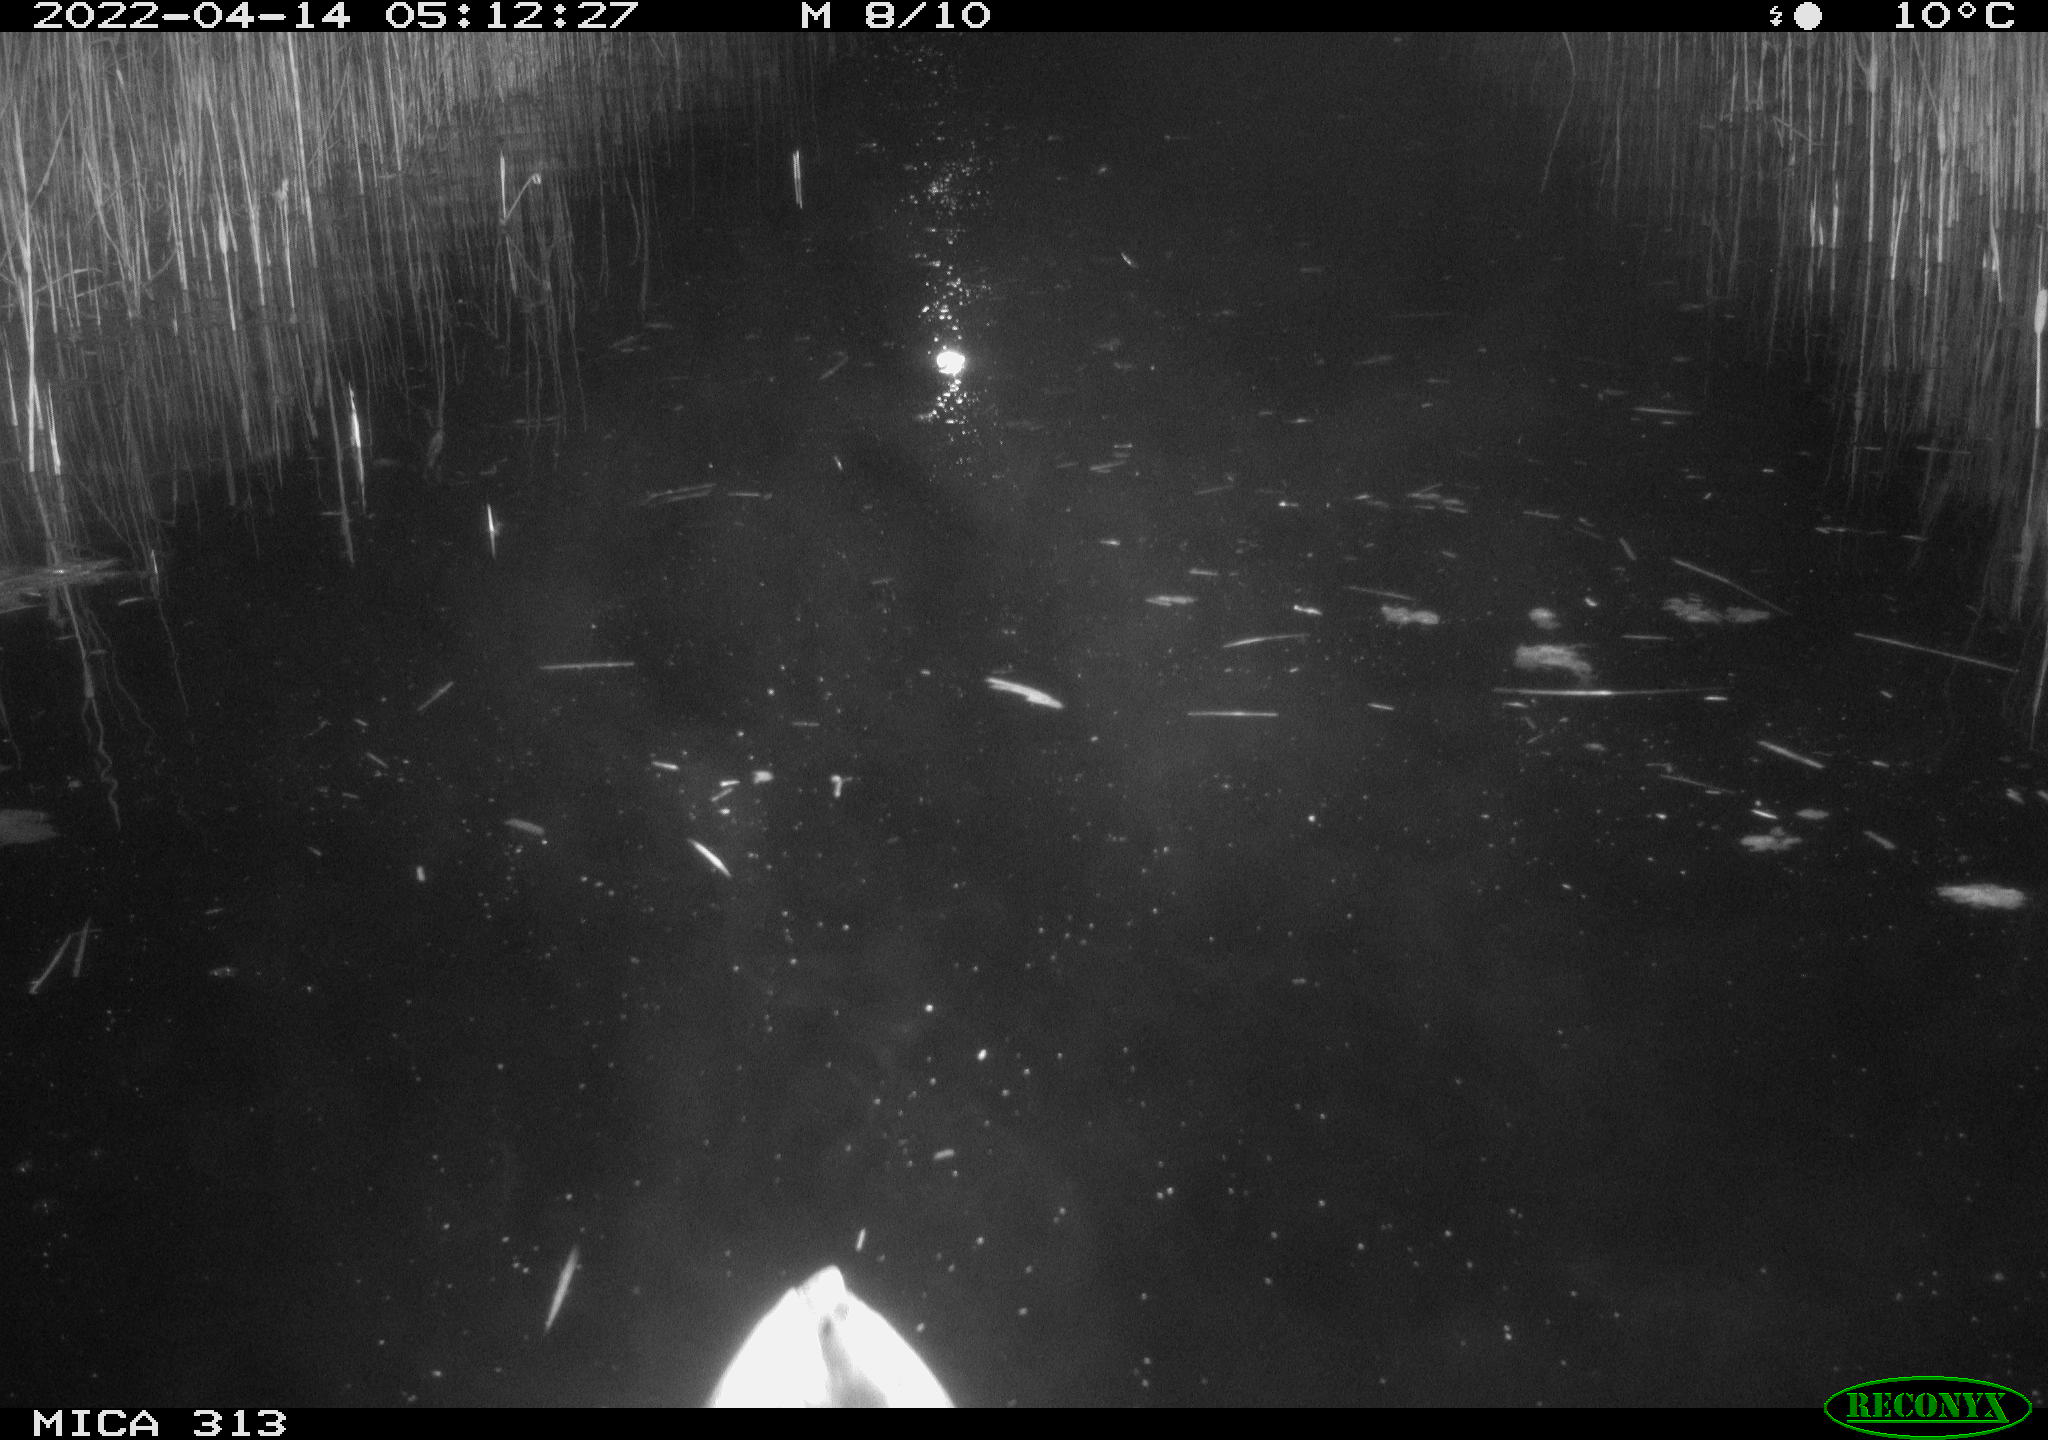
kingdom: Animalia
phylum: Chordata
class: Aves
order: Anseriformes
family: Anatidae
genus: Anas
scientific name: Anas platyrhynchos
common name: Mallard
